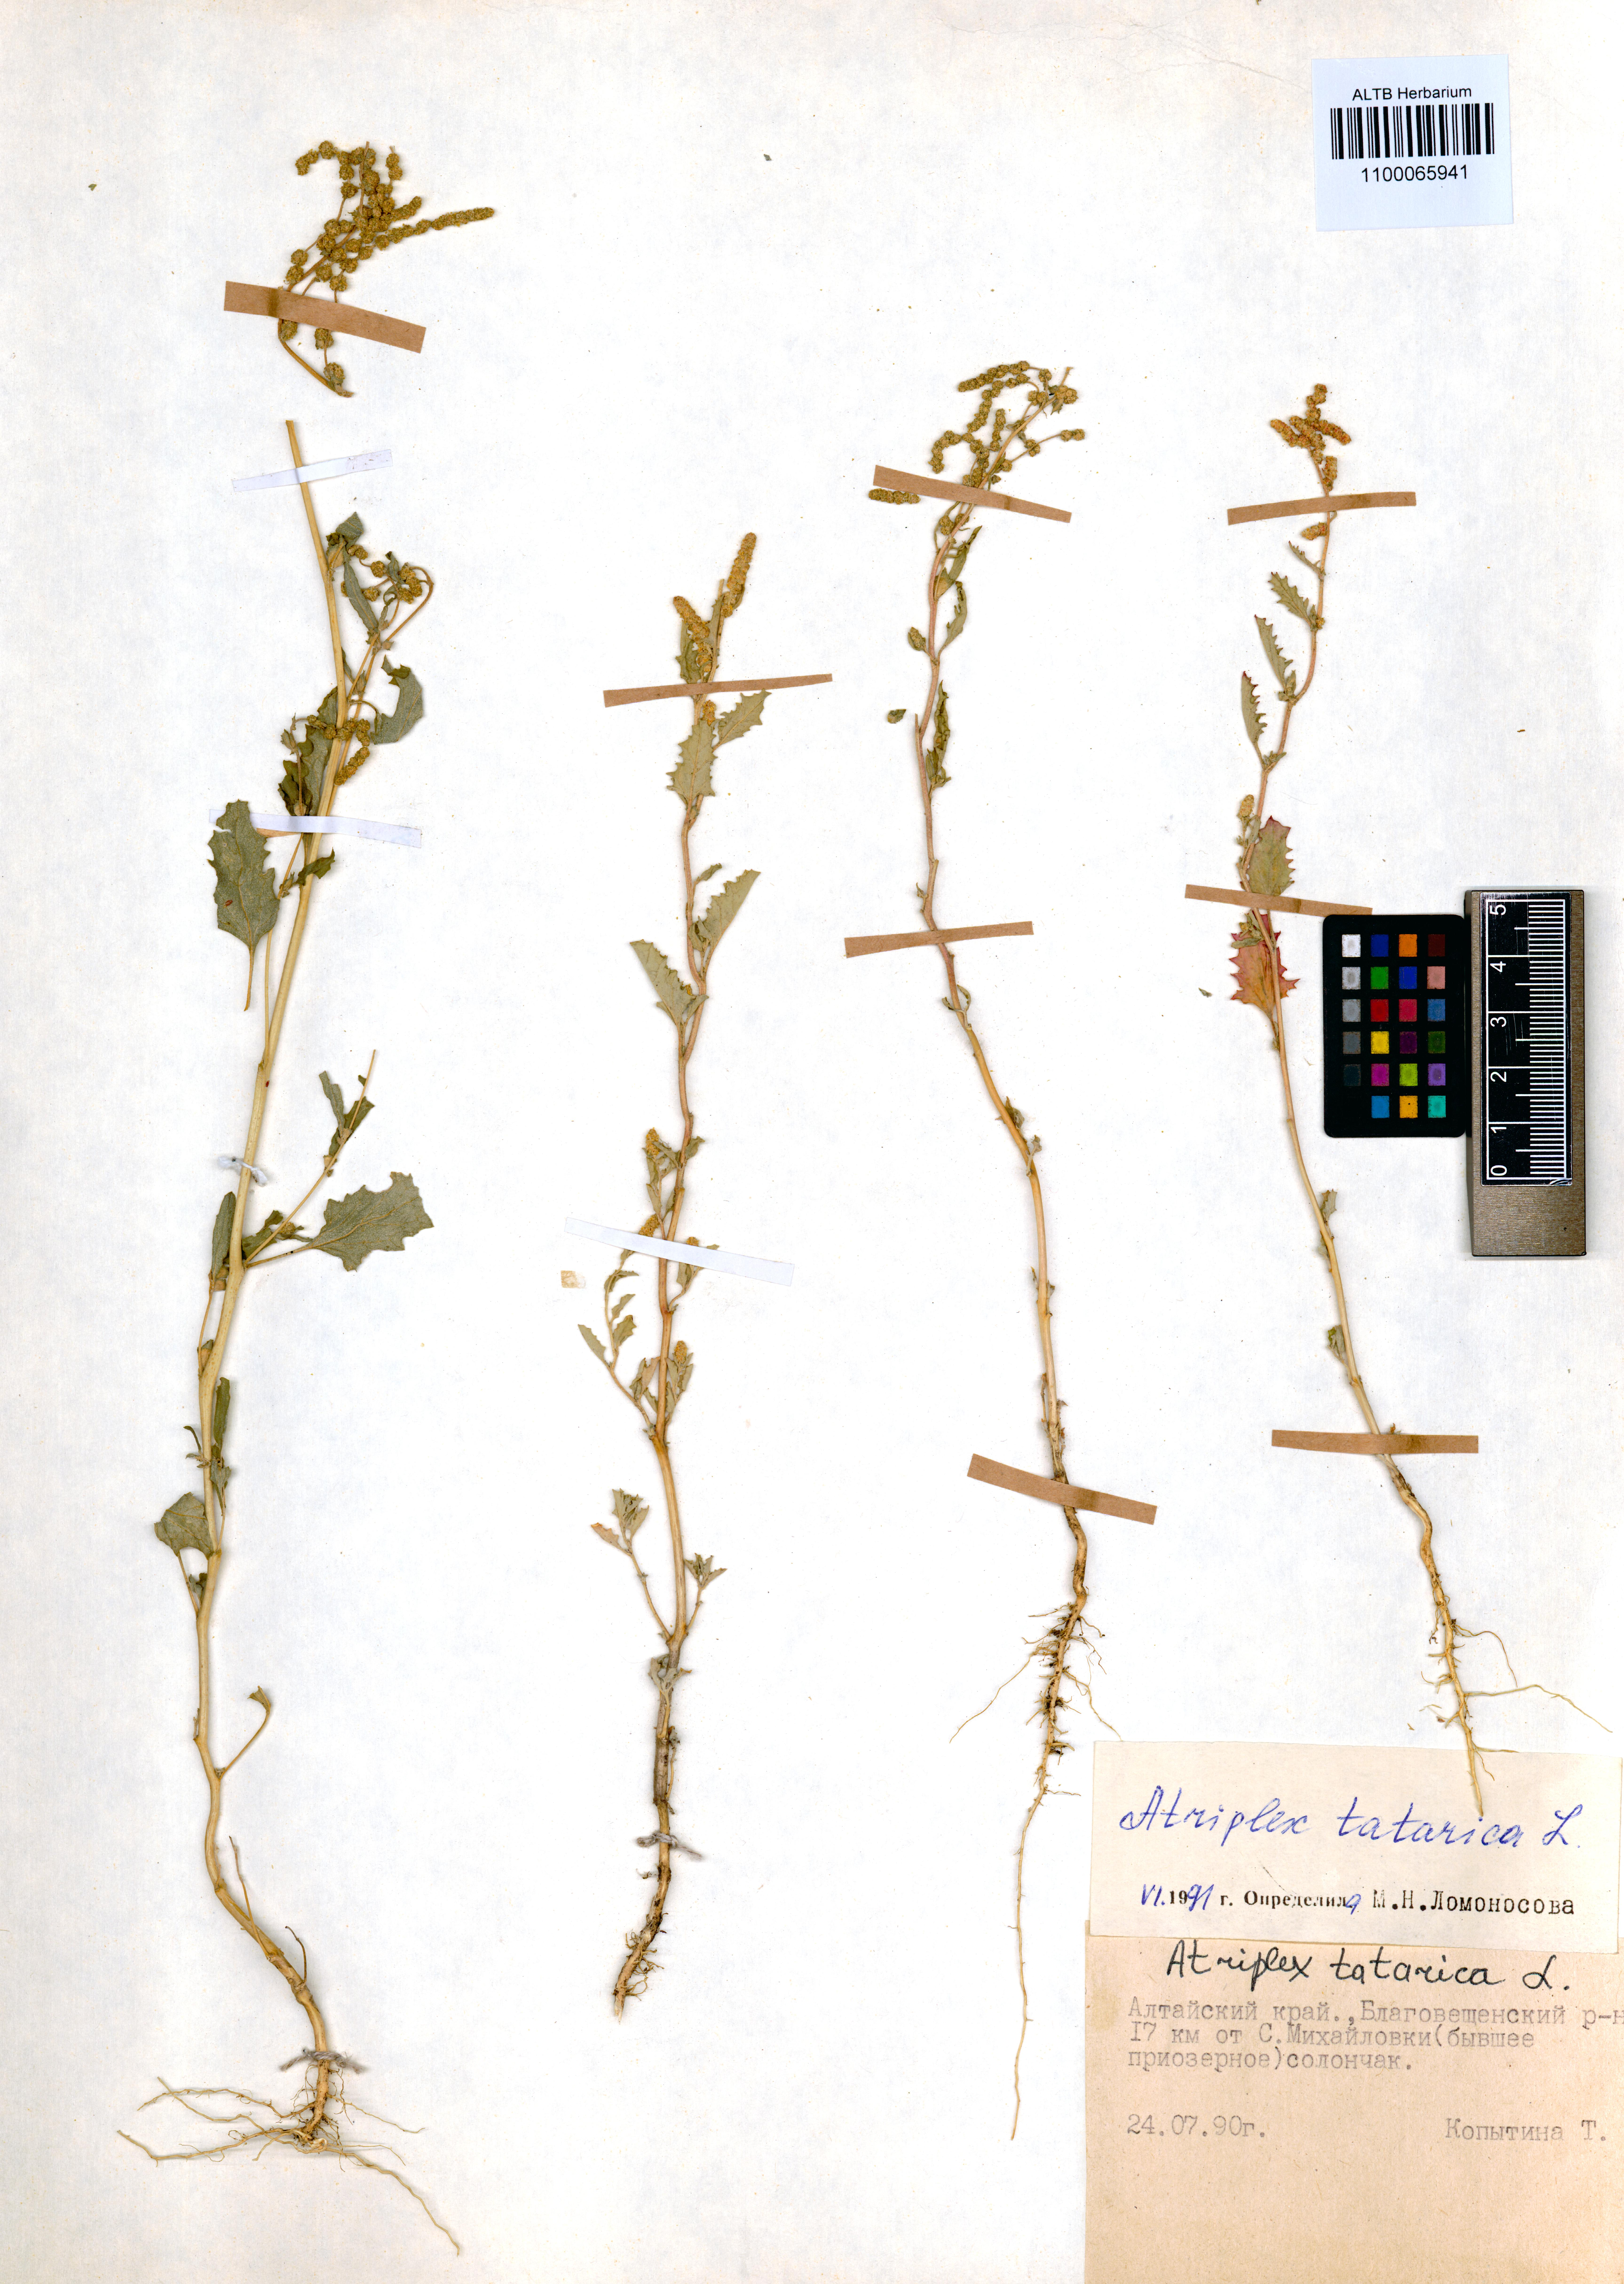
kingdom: Plantae
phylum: Tracheophyta
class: Magnoliopsida
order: Caryophyllales
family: Amaranthaceae
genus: Atriplex
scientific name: Atriplex tatarica
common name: Tatarian orache
